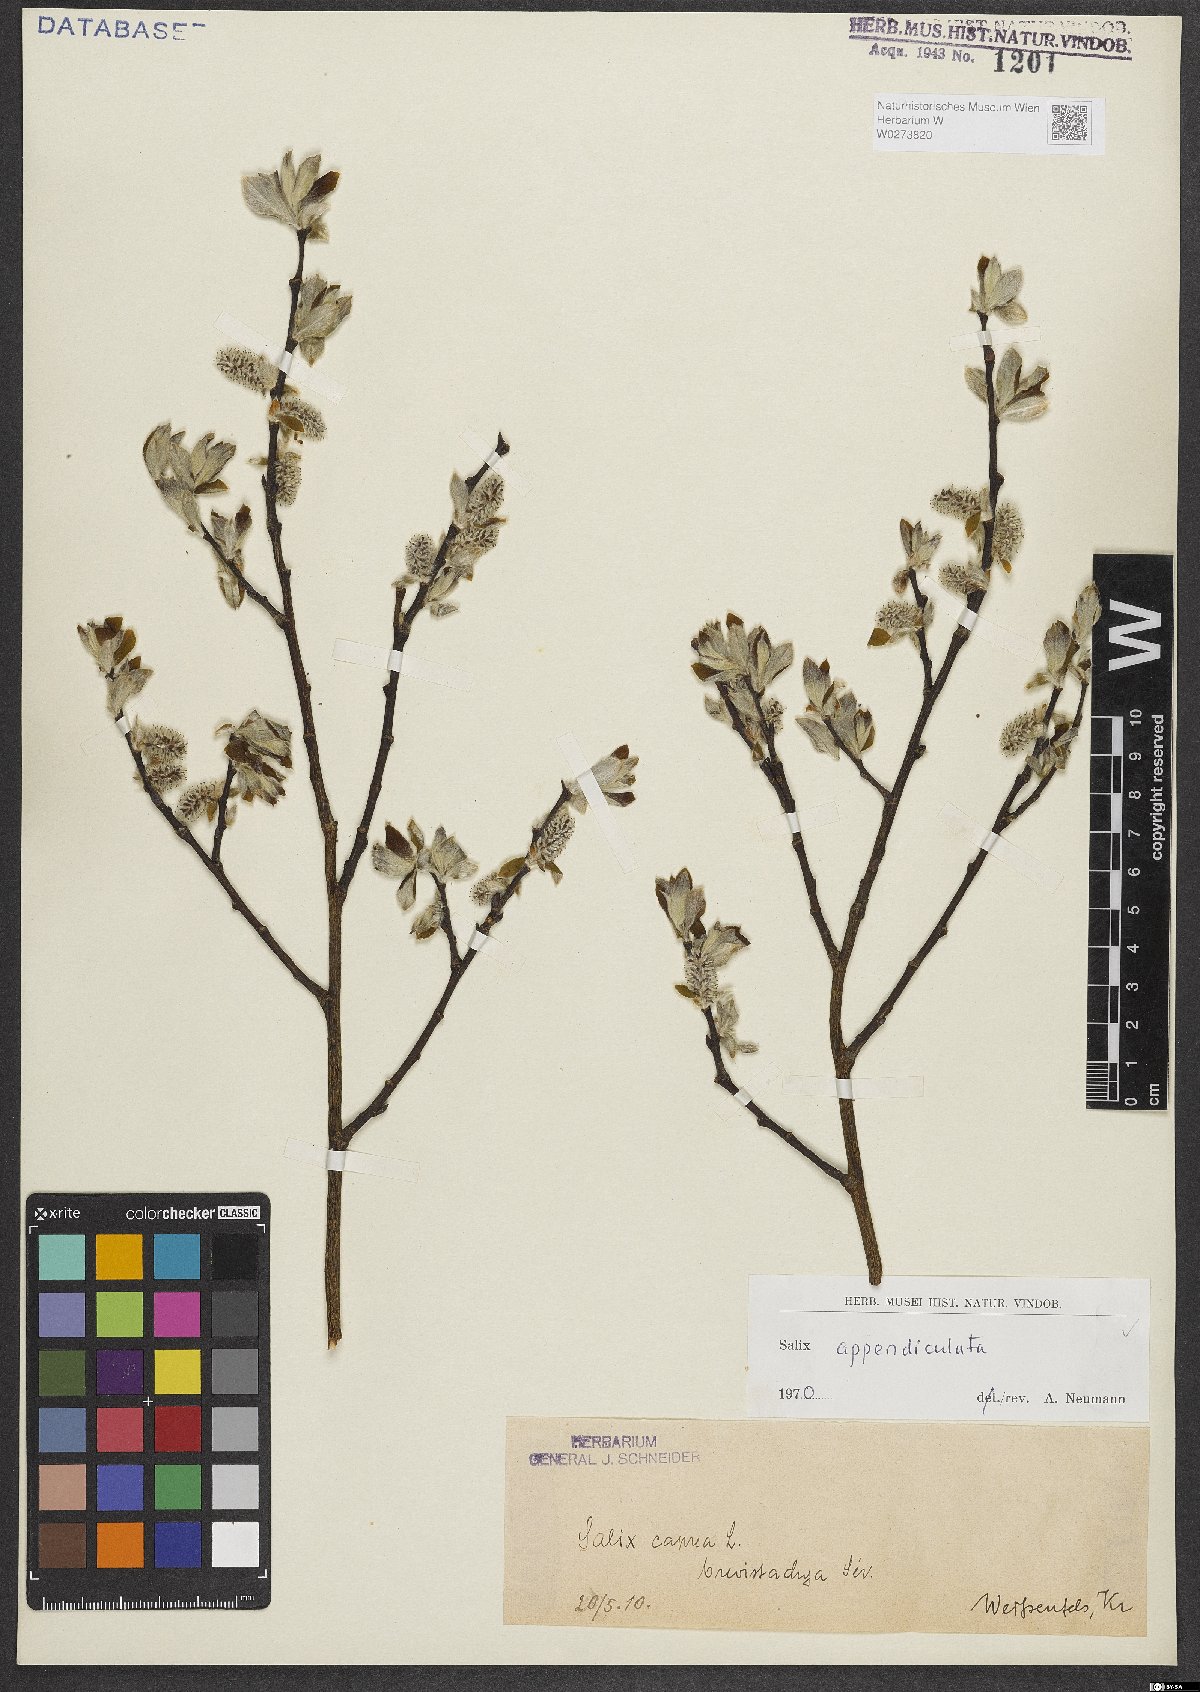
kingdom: Plantae
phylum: Tracheophyta
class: Magnoliopsida
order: Malpighiales
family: Salicaceae
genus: Salix
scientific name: Salix appendiculata
